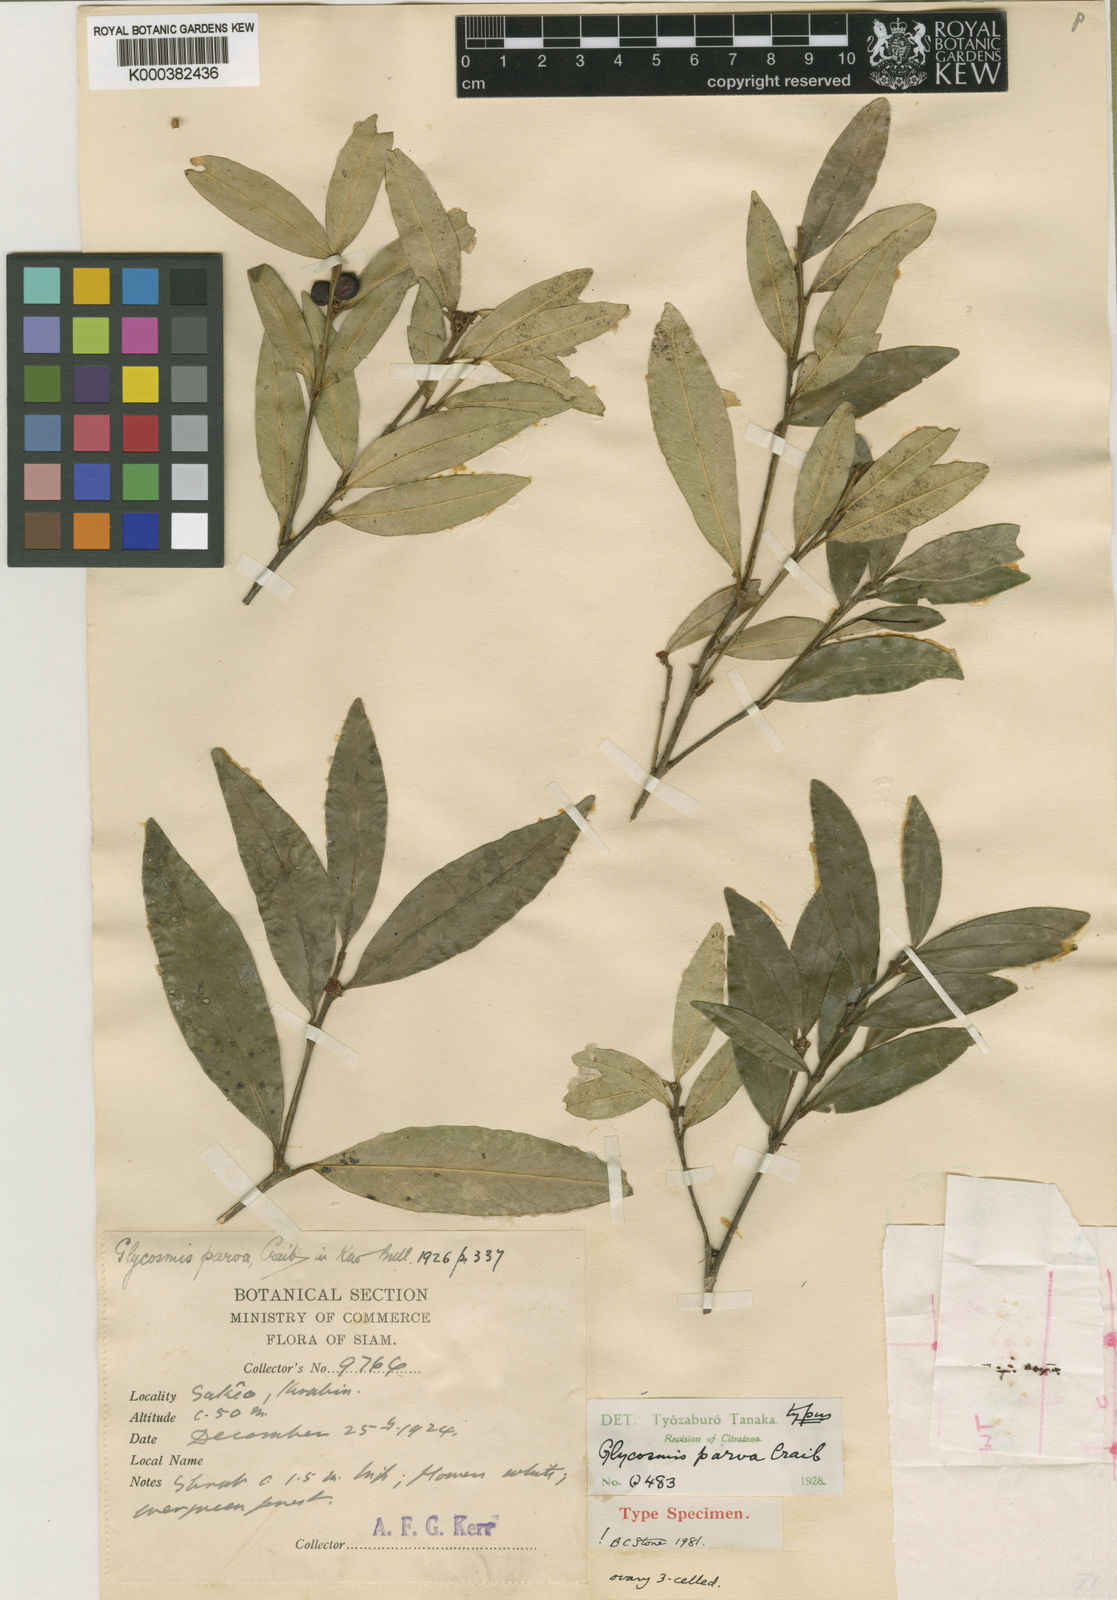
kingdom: Plantae
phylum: Tracheophyta
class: Magnoliopsida
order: Sapindales
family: Rutaceae
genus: Glycosmis
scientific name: Glycosmis parva
